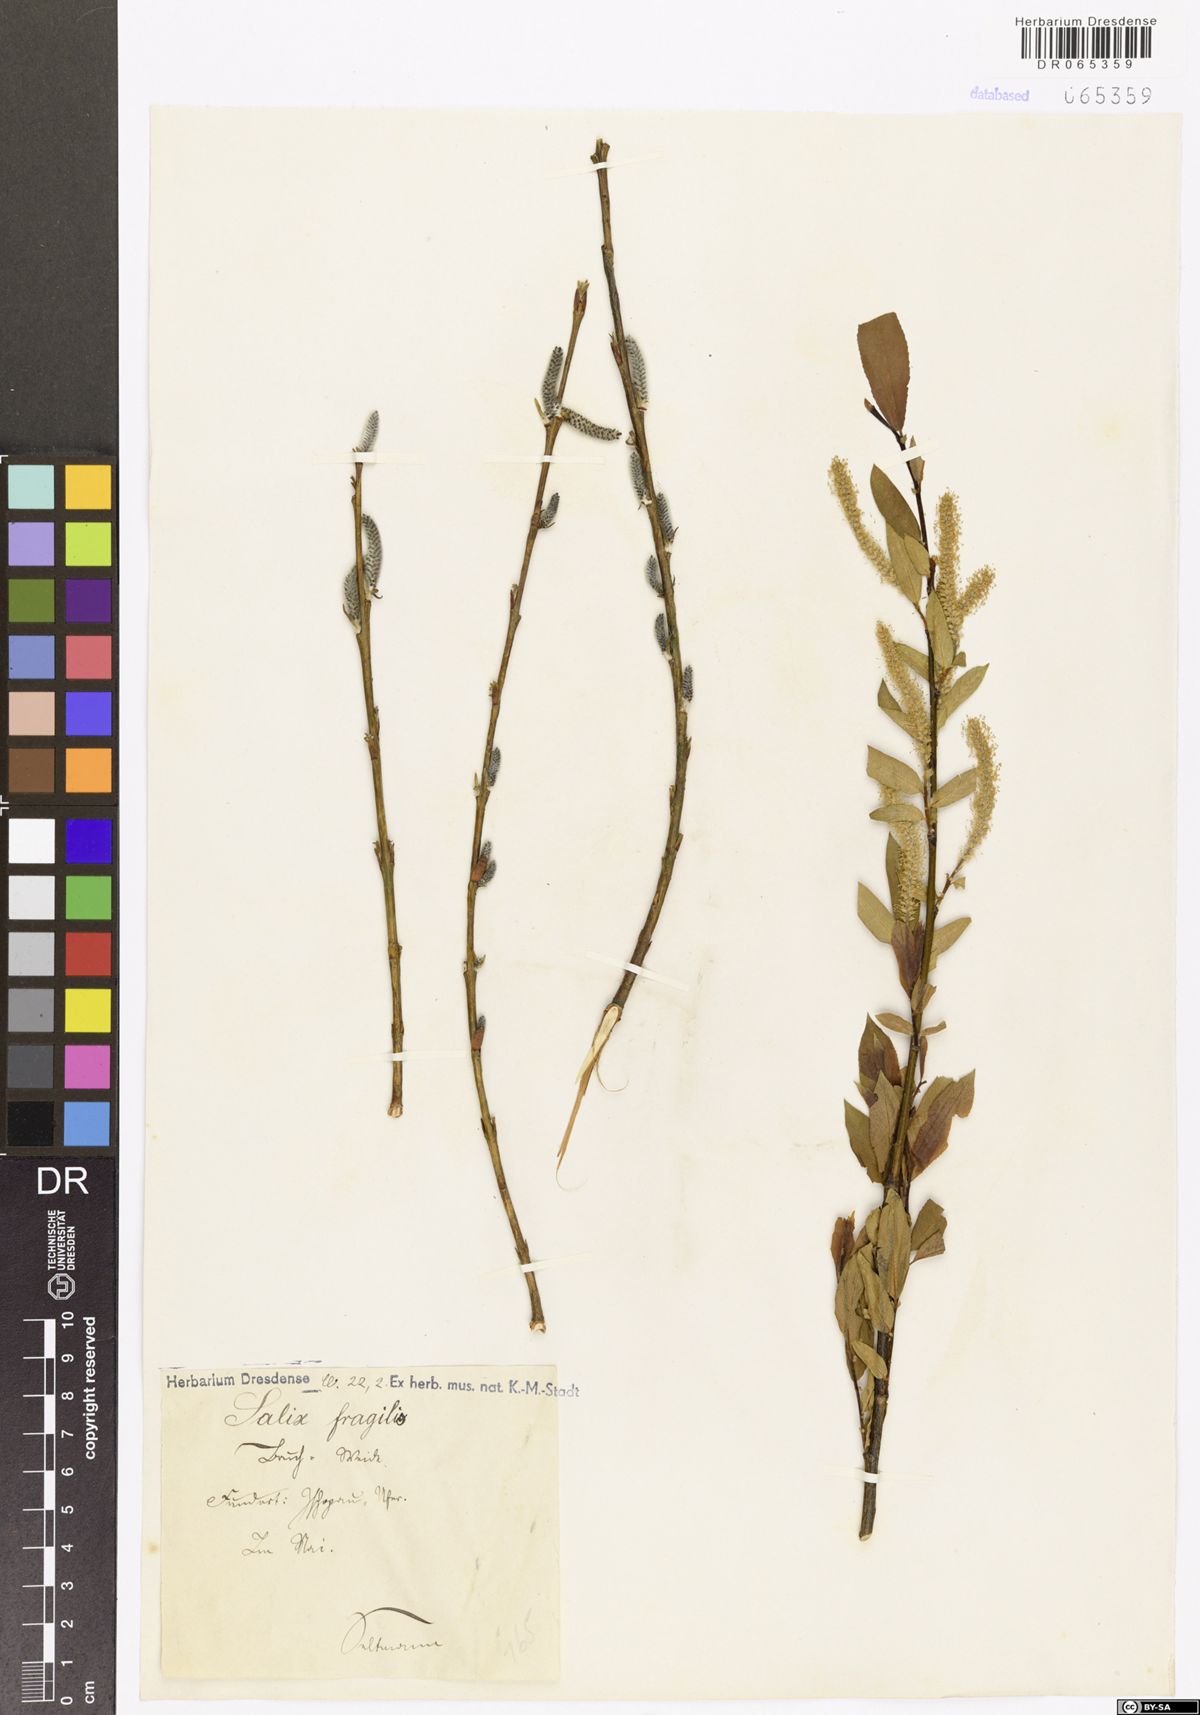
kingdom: Plantae
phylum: Tracheophyta
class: Magnoliopsida
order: Malpighiales
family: Salicaceae
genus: Salix
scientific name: Salix fragilis
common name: Crack willow
